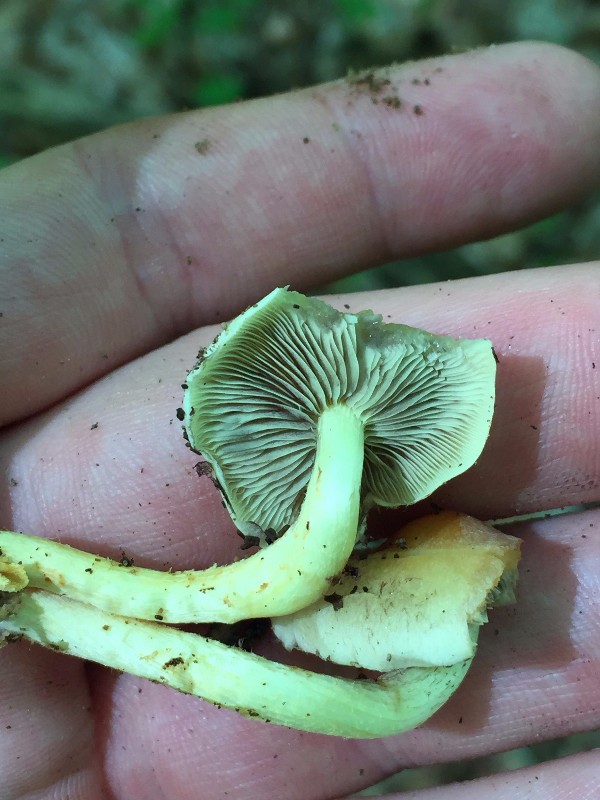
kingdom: Fungi
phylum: Basidiomycota
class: Agaricomycetes
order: Agaricales
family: Strophariaceae
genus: Hypholoma
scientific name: Hypholoma fasciculare
